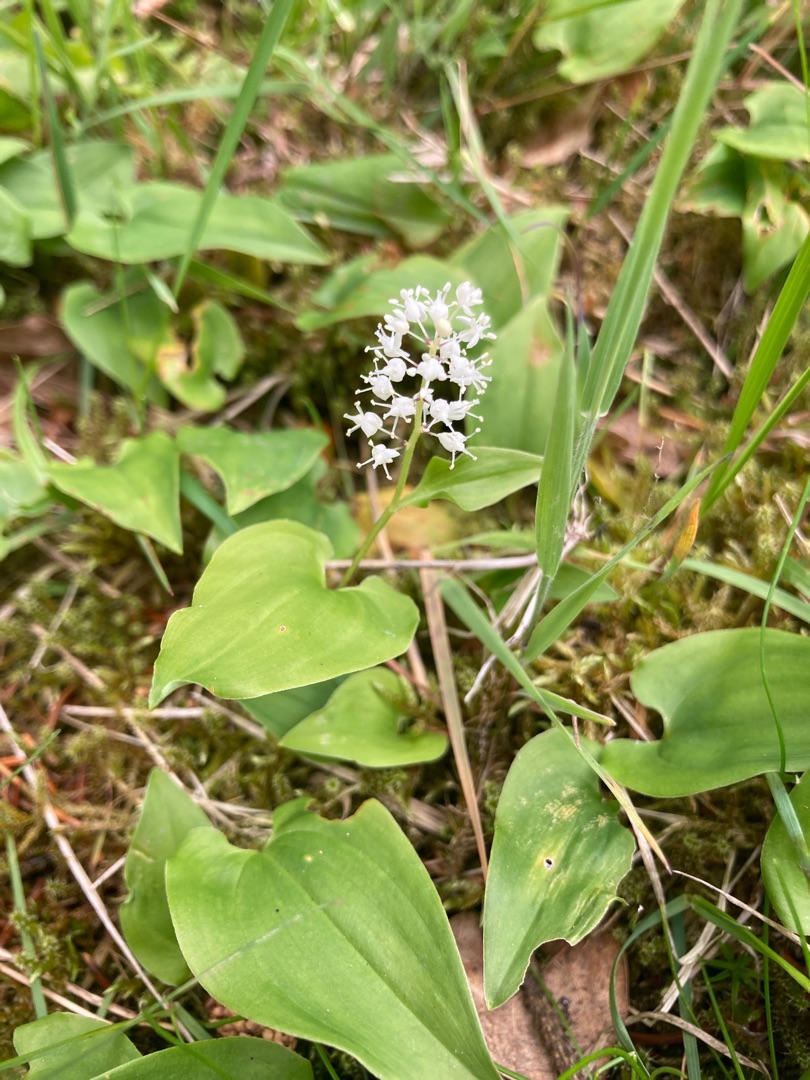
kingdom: Plantae
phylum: Tracheophyta
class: Liliopsida
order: Asparagales
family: Asparagaceae
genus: Maianthemum
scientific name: Maianthemum bifolium
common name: Majblomst
